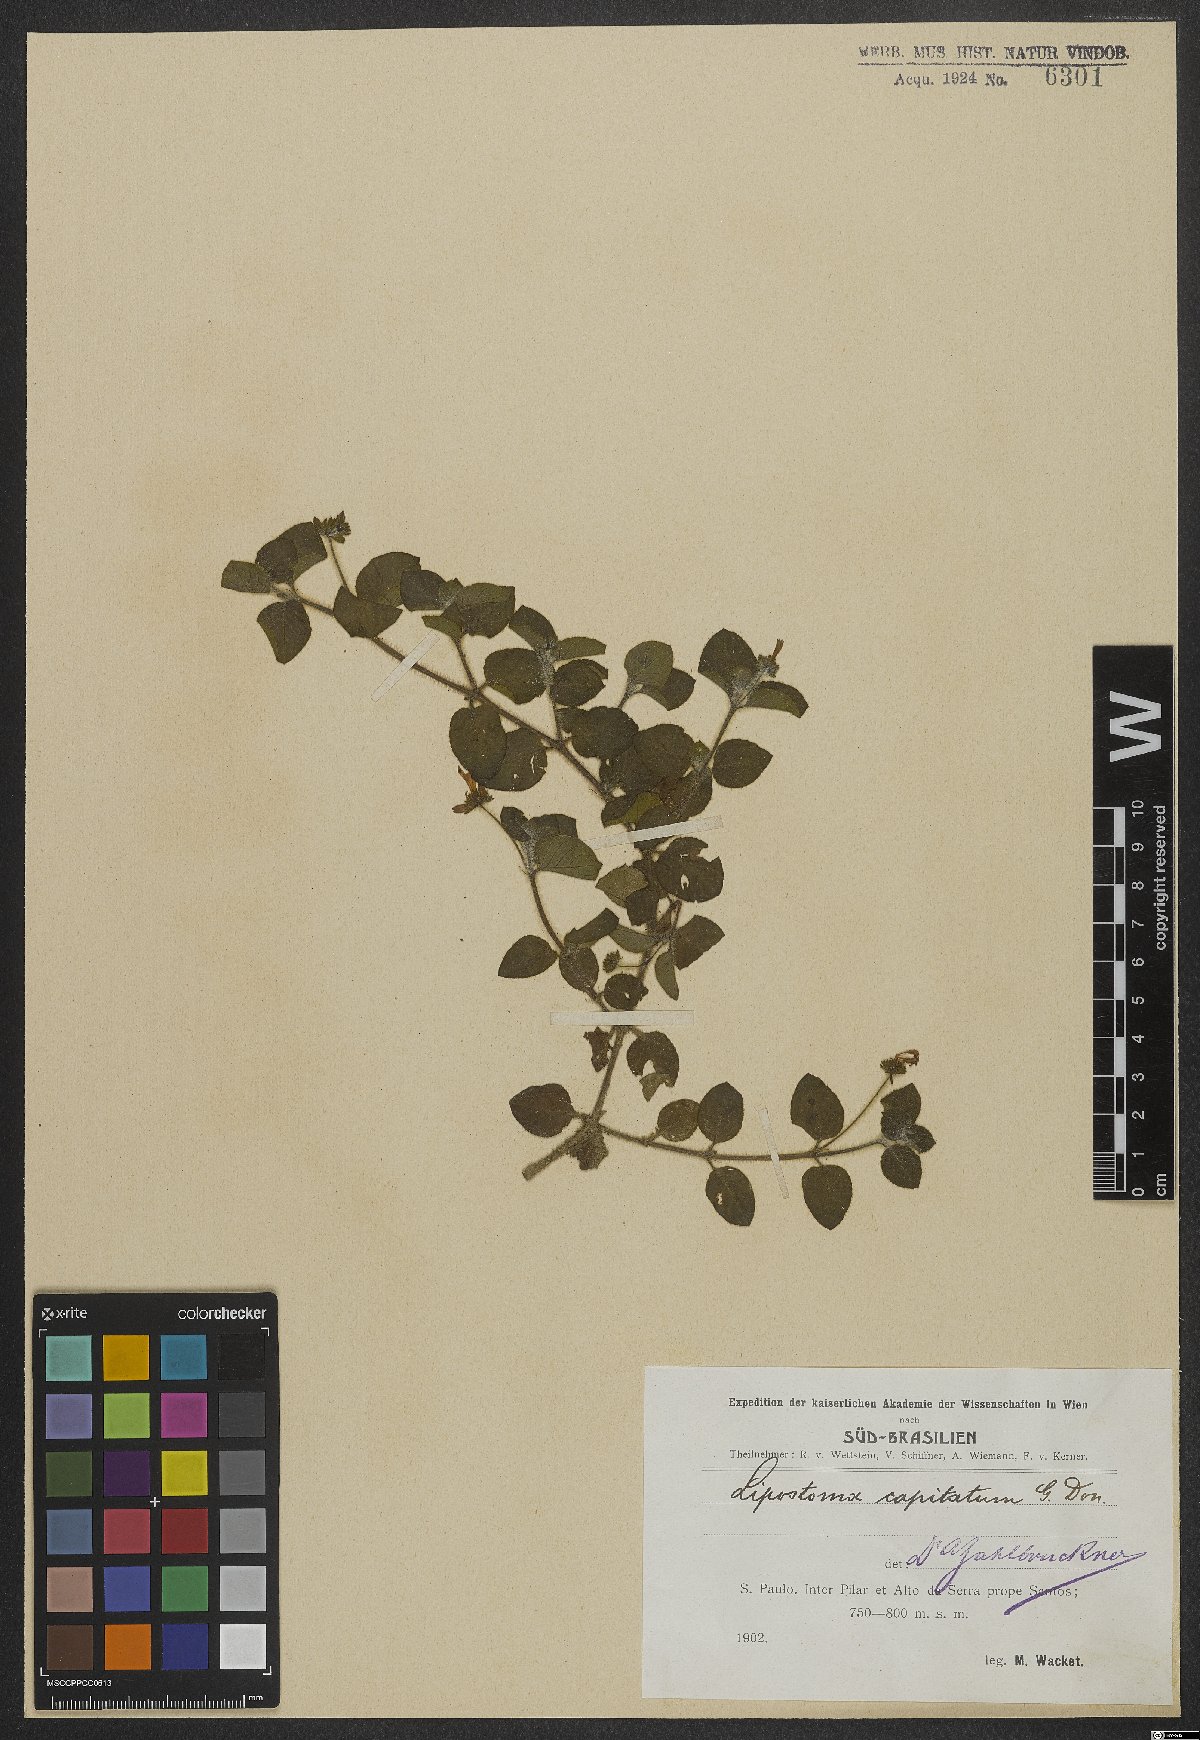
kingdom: Plantae
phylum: Tracheophyta
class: Magnoliopsida
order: Gentianales
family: Rubiaceae
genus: Coccocypselum
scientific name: Coccocypselum capitatum
